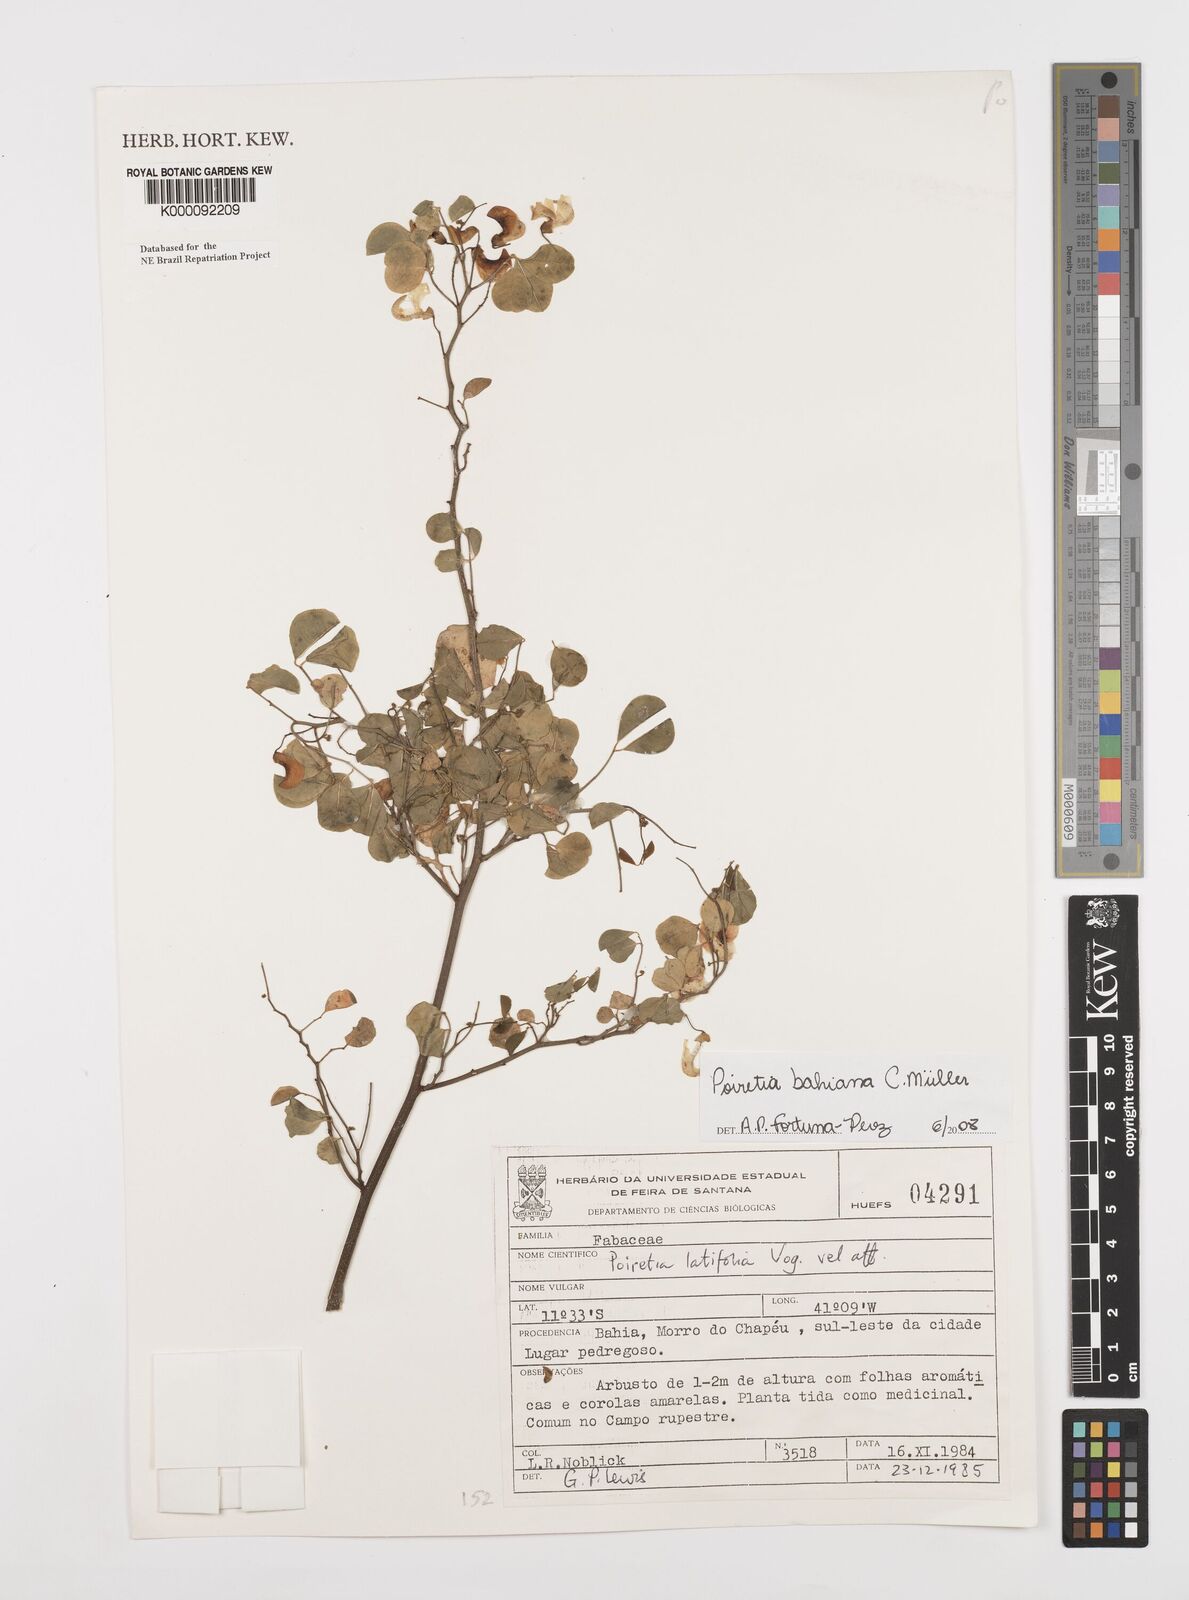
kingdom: Plantae
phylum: Tracheophyta
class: Magnoliopsida
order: Fabales
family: Fabaceae
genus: Poiretia
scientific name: Poiretia latifolia
